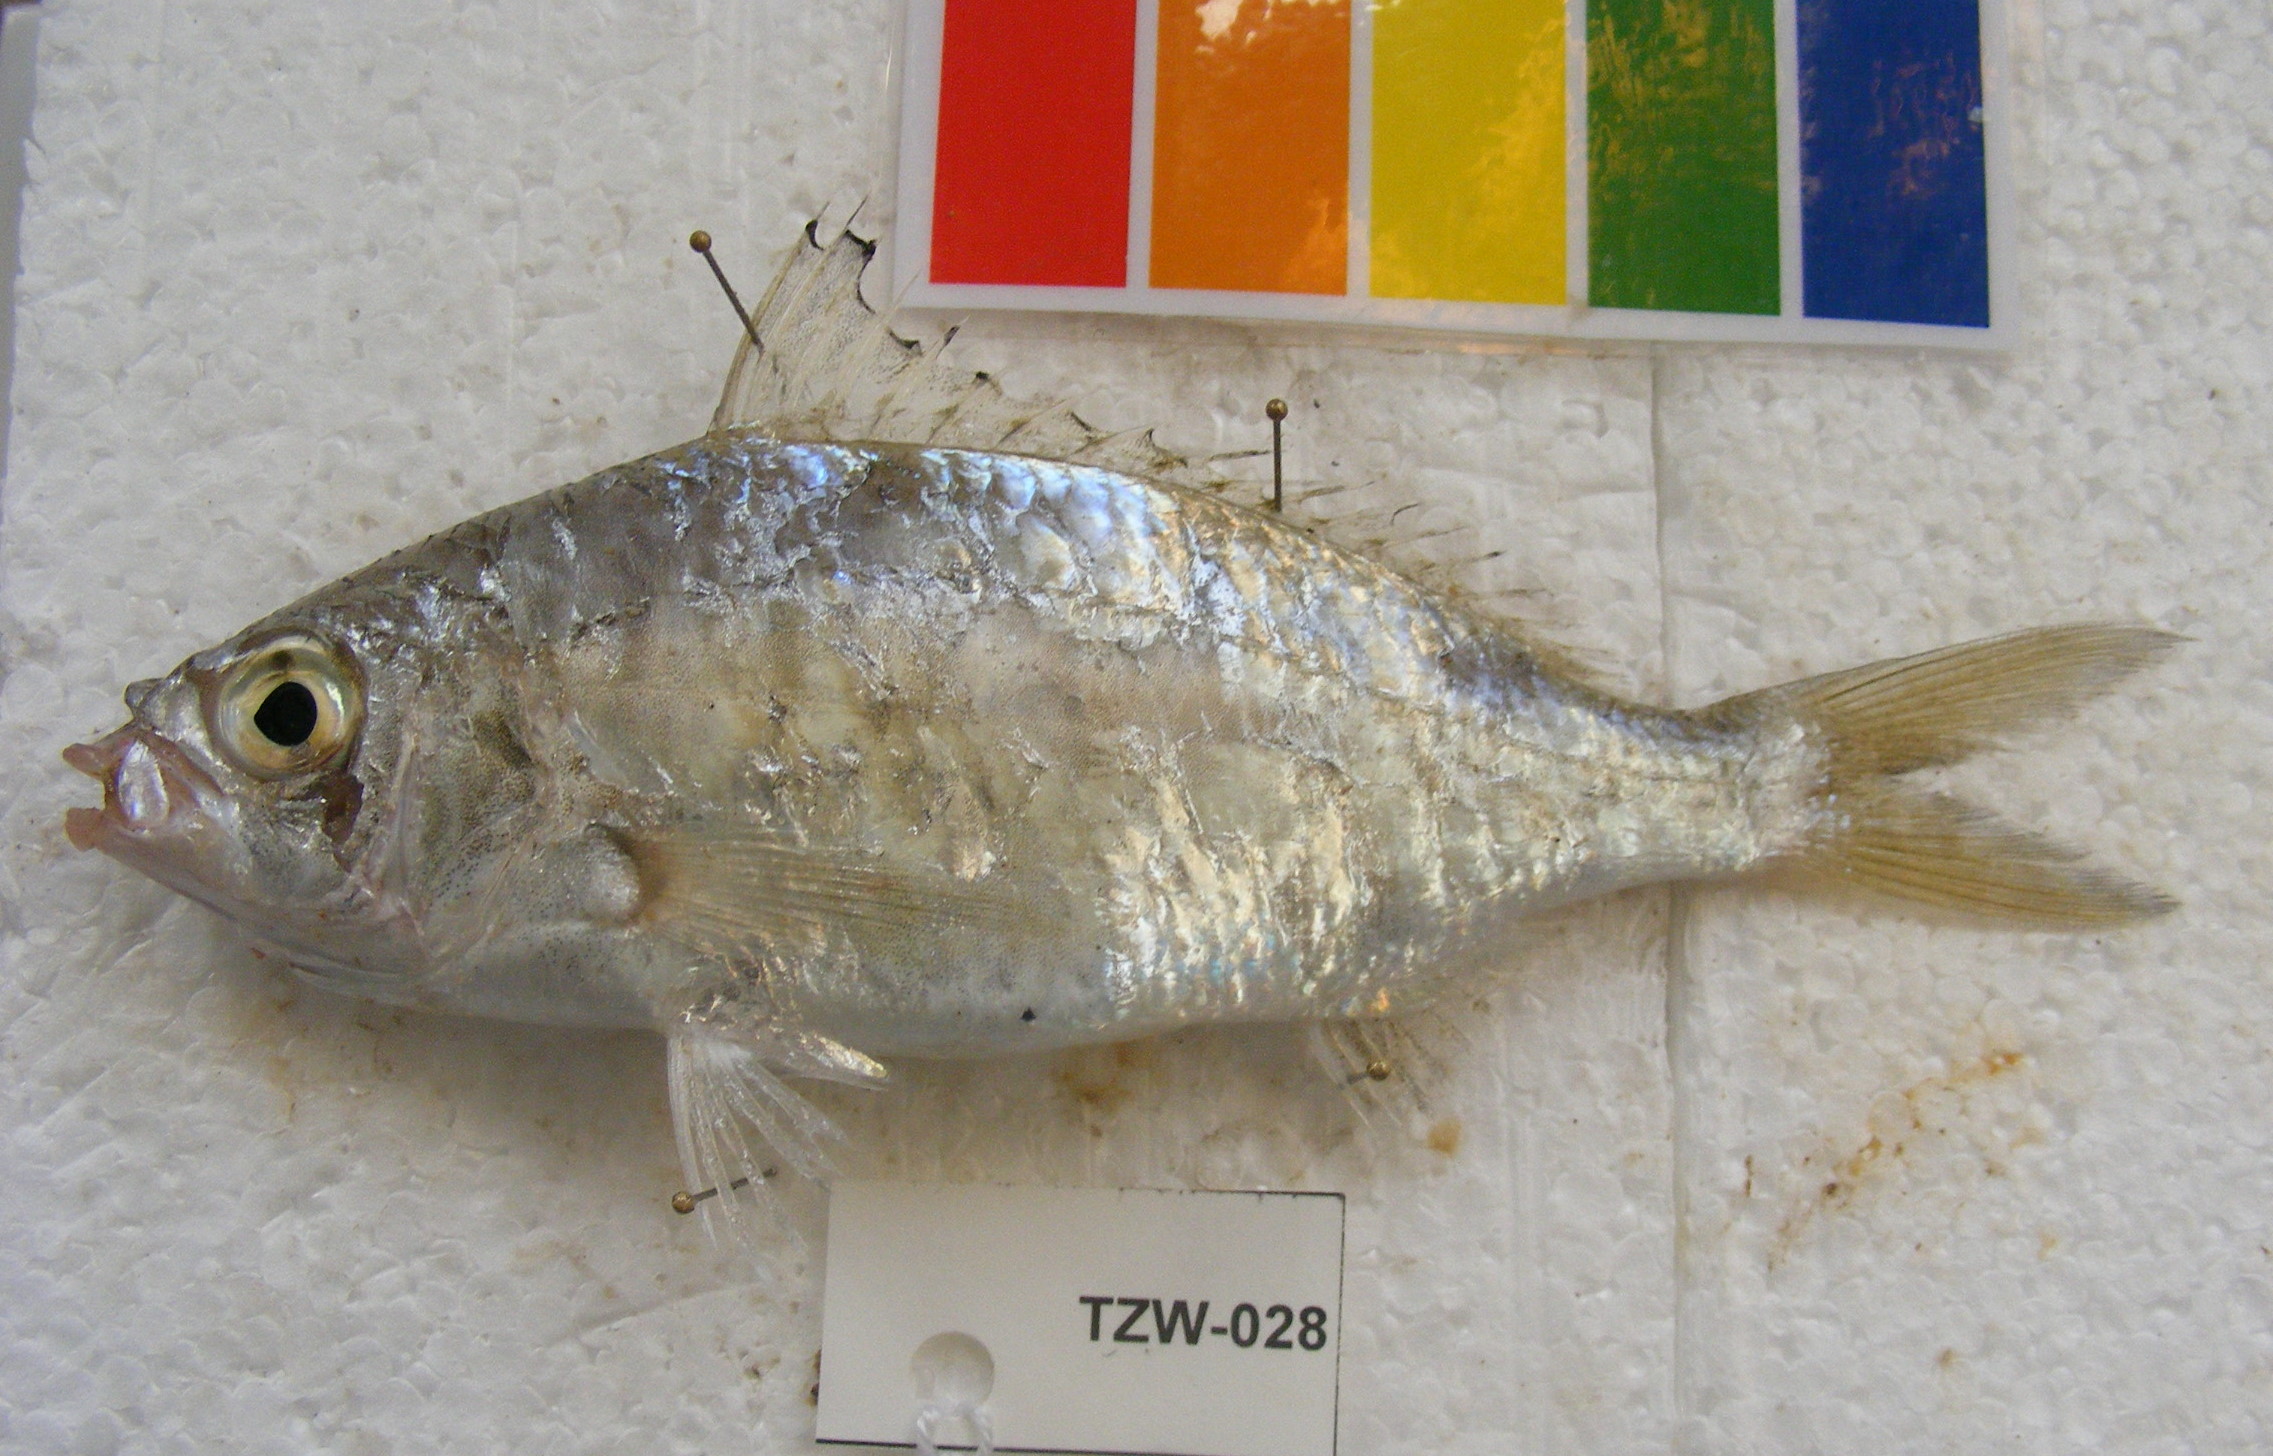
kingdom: Animalia
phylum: Chordata
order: Perciformes
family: Gerreidae
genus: Gerres
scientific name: Gerres oyena
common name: Common silver-biddy
